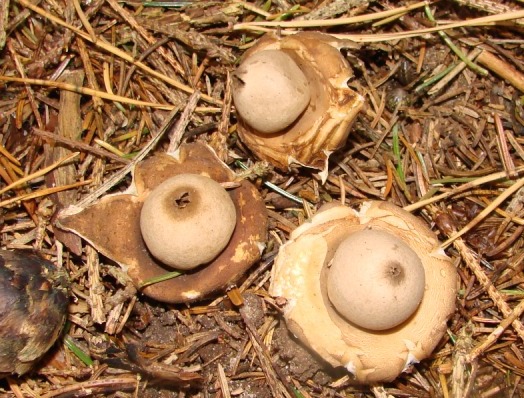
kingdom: Fungi
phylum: Basidiomycota
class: Agaricomycetes
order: Geastrales
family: Geastraceae
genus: Geastrum
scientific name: Geastrum fimbriatum
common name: frynset stjernebold
